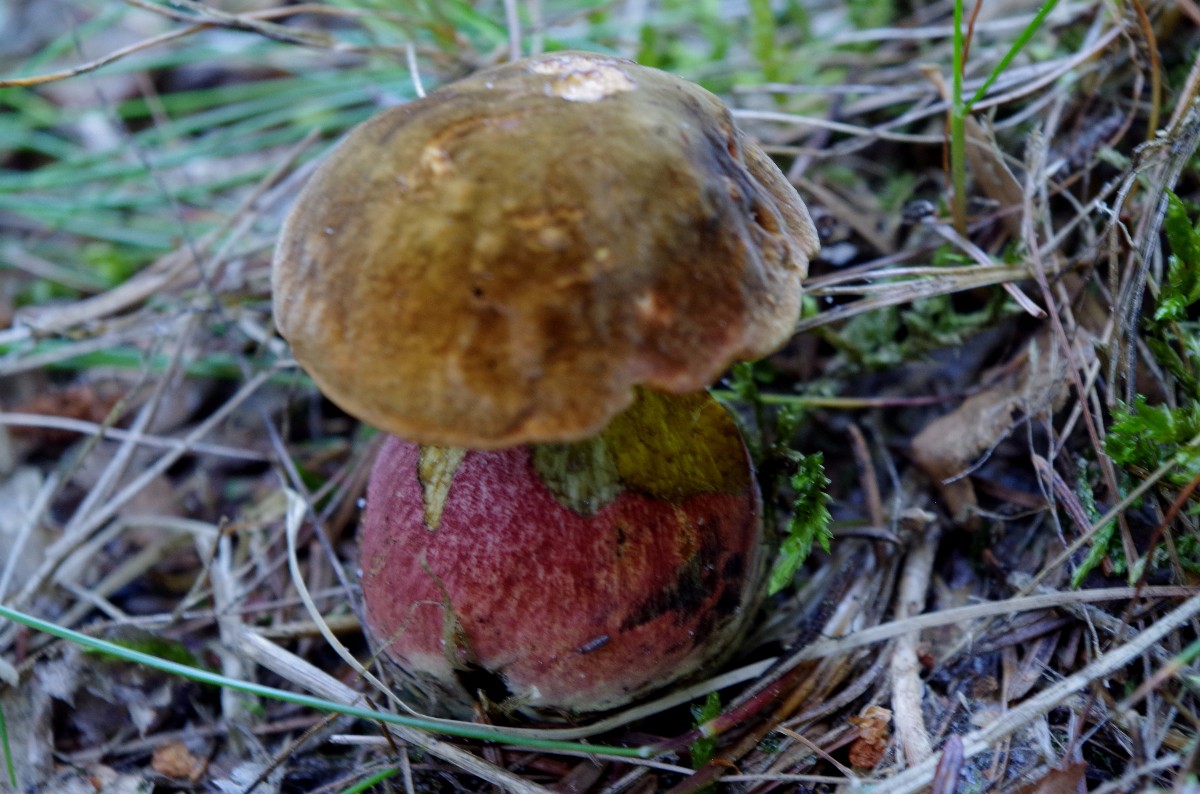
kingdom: Fungi
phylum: Basidiomycota
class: Agaricomycetes
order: Boletales
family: Boletaceae
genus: Neoboletus
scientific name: Neoboletus erythropus
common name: punktstokket indigorørhat
